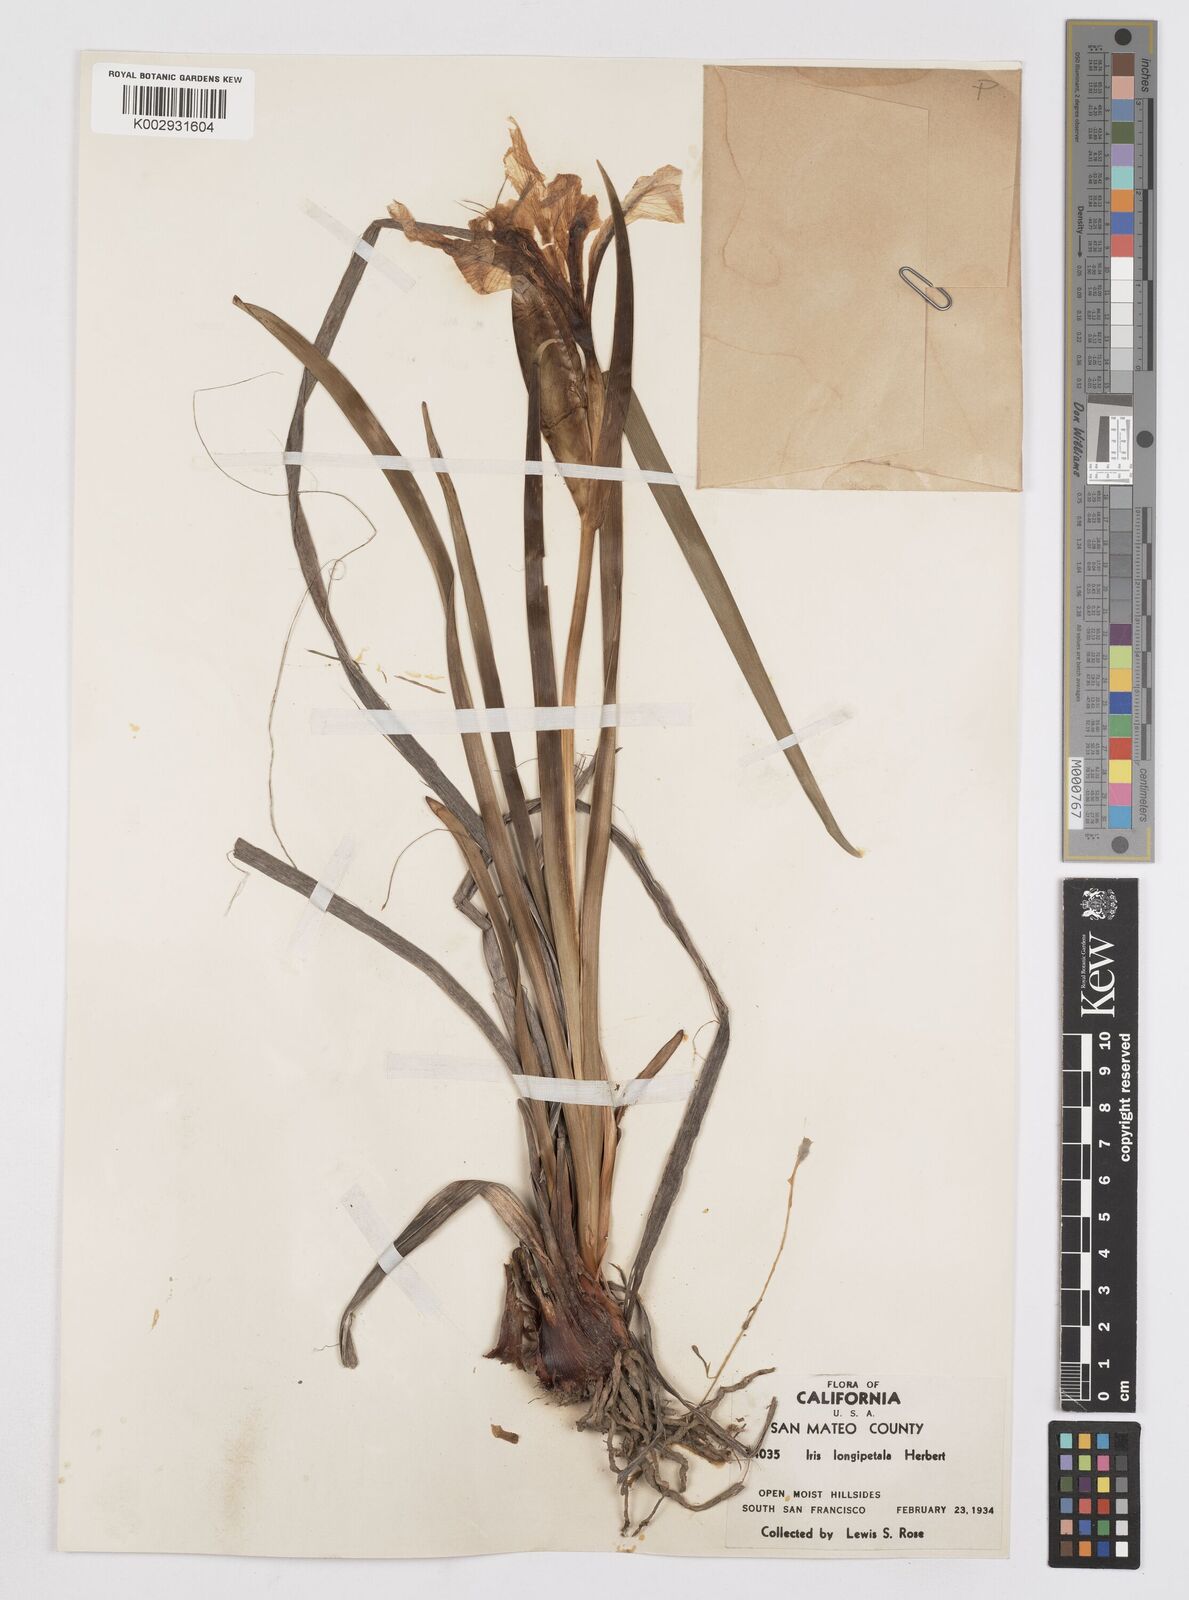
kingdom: Plantae
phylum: Tracheophyta
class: Liliopsida
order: Asparagales
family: Iridaceae
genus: Iris
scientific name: Iris longipetala
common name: Long-petal iris
